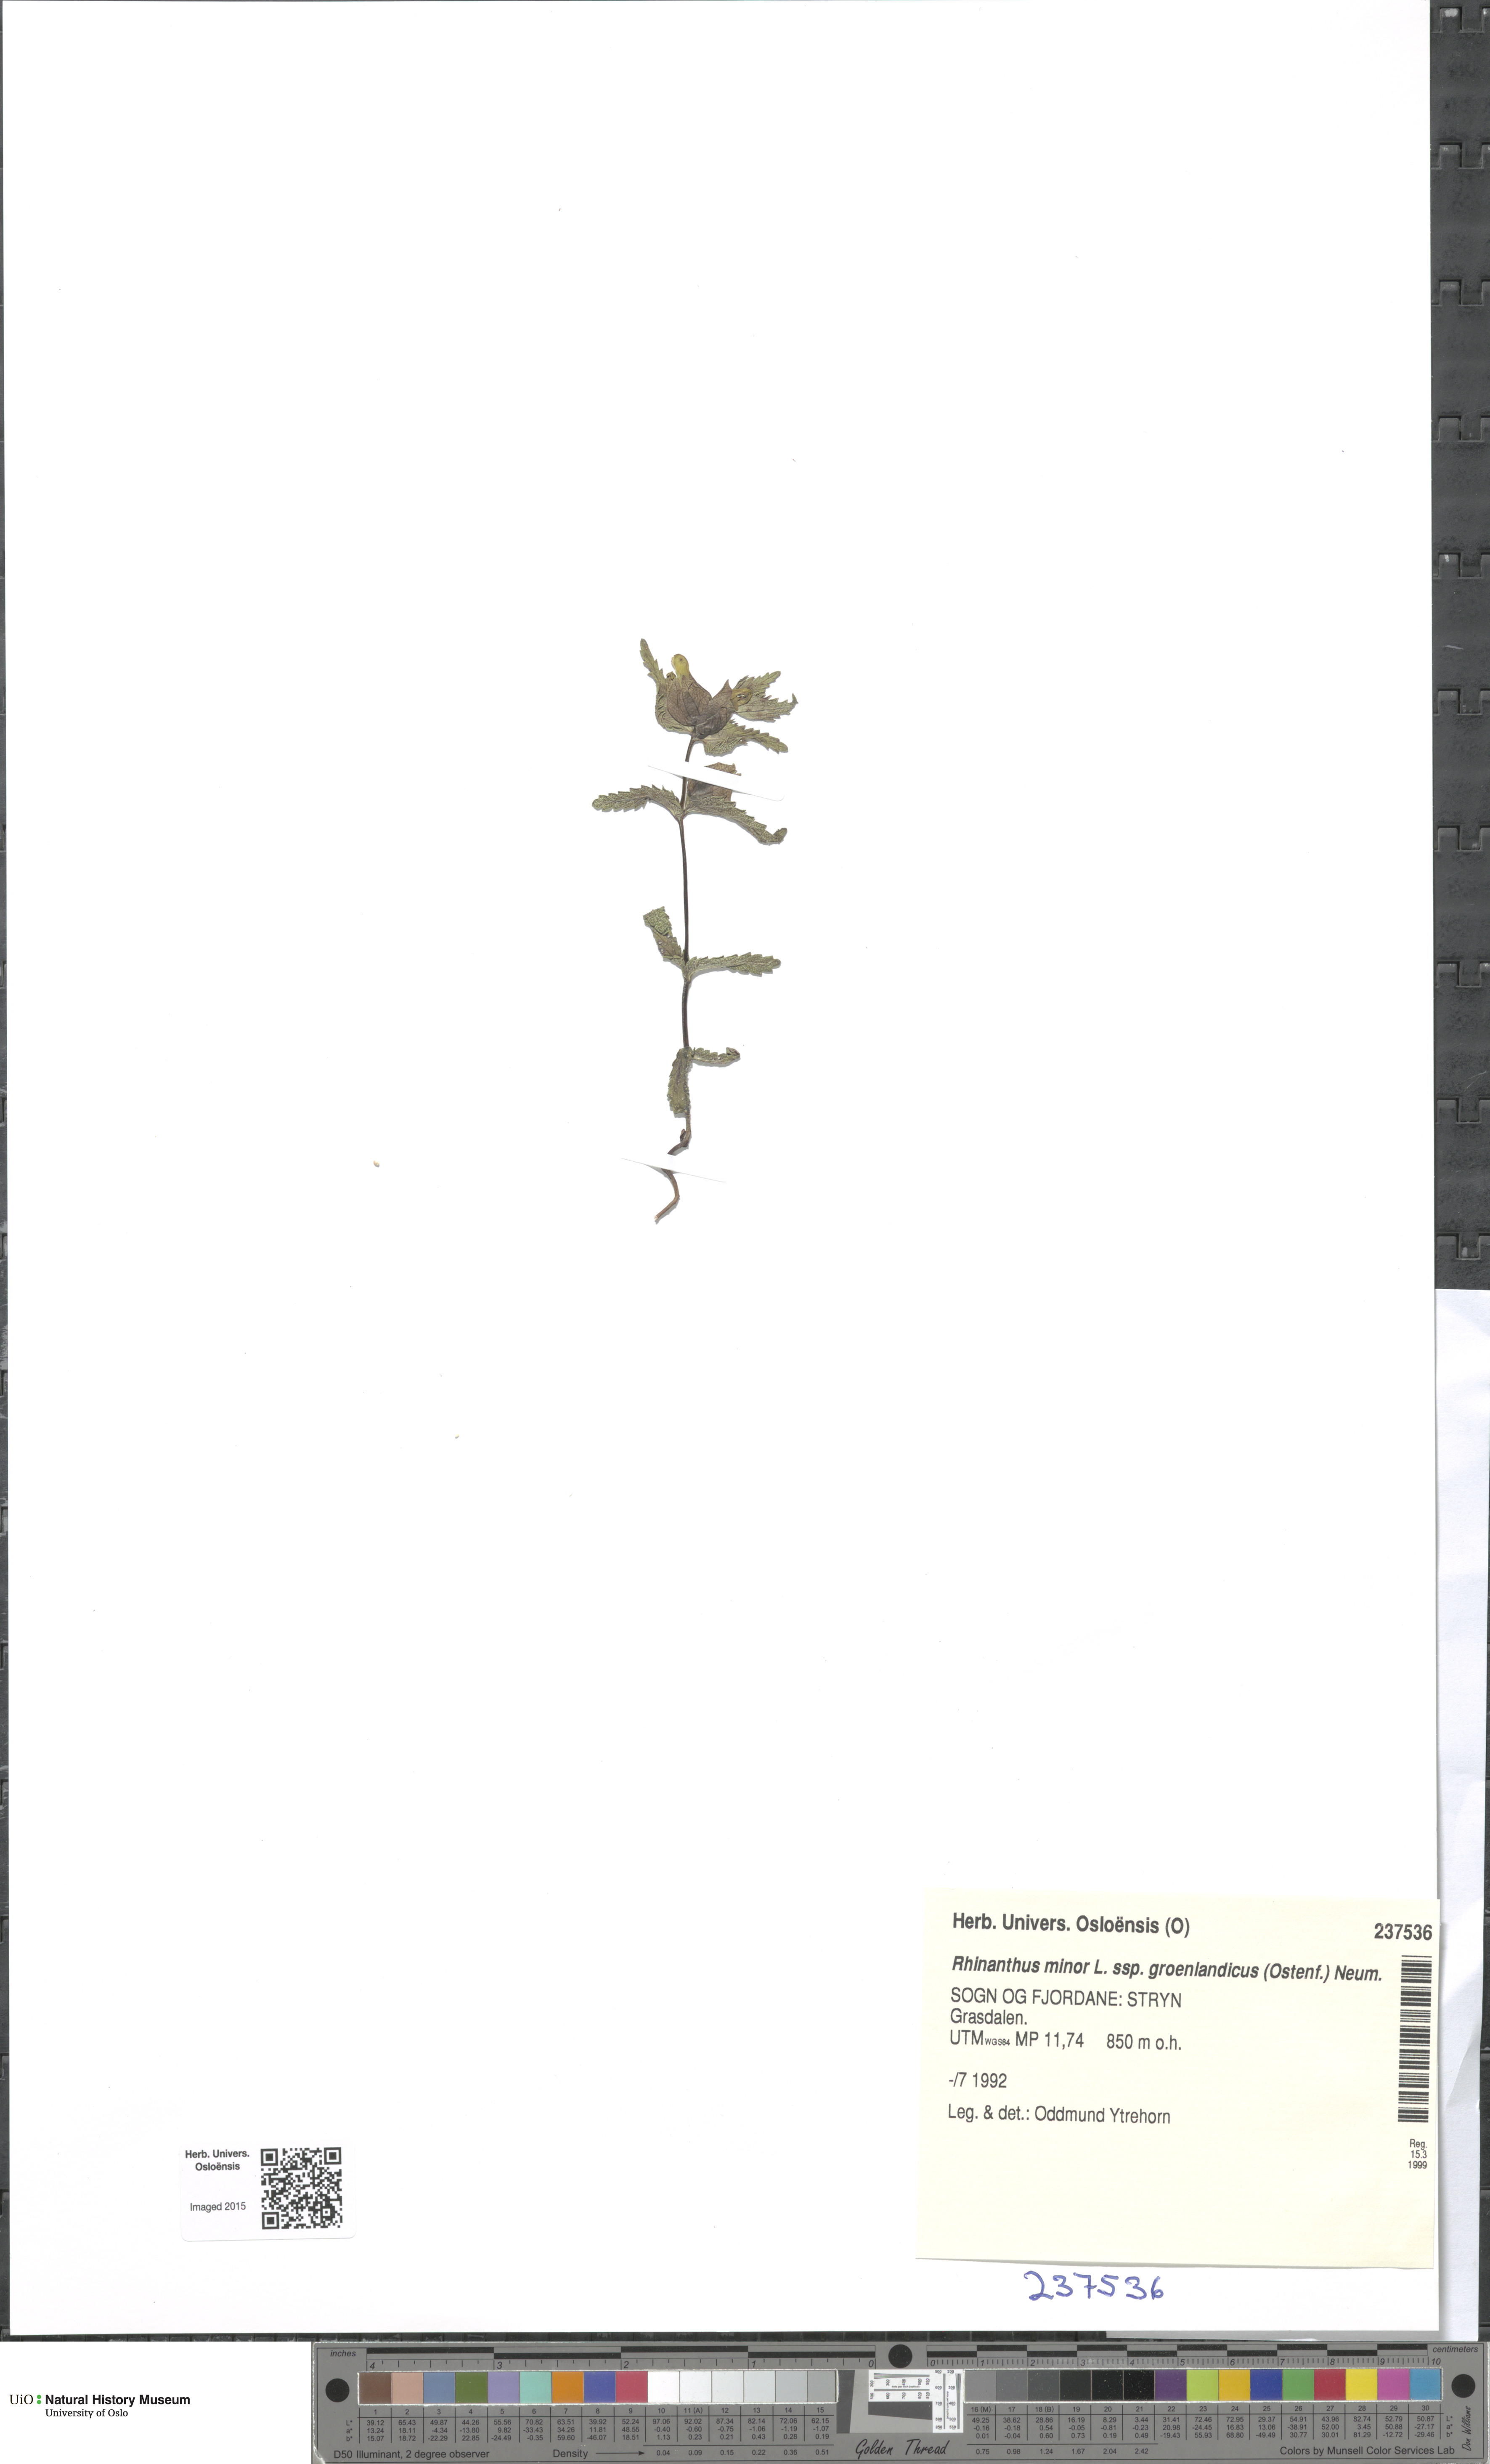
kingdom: Plantae
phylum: Tracheophyta
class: Magnoliopsida
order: Lamiales
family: Orobanchaceae
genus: Rhinanthus
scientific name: Rhinanthus groenlandicus
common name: Little yellow rattle
